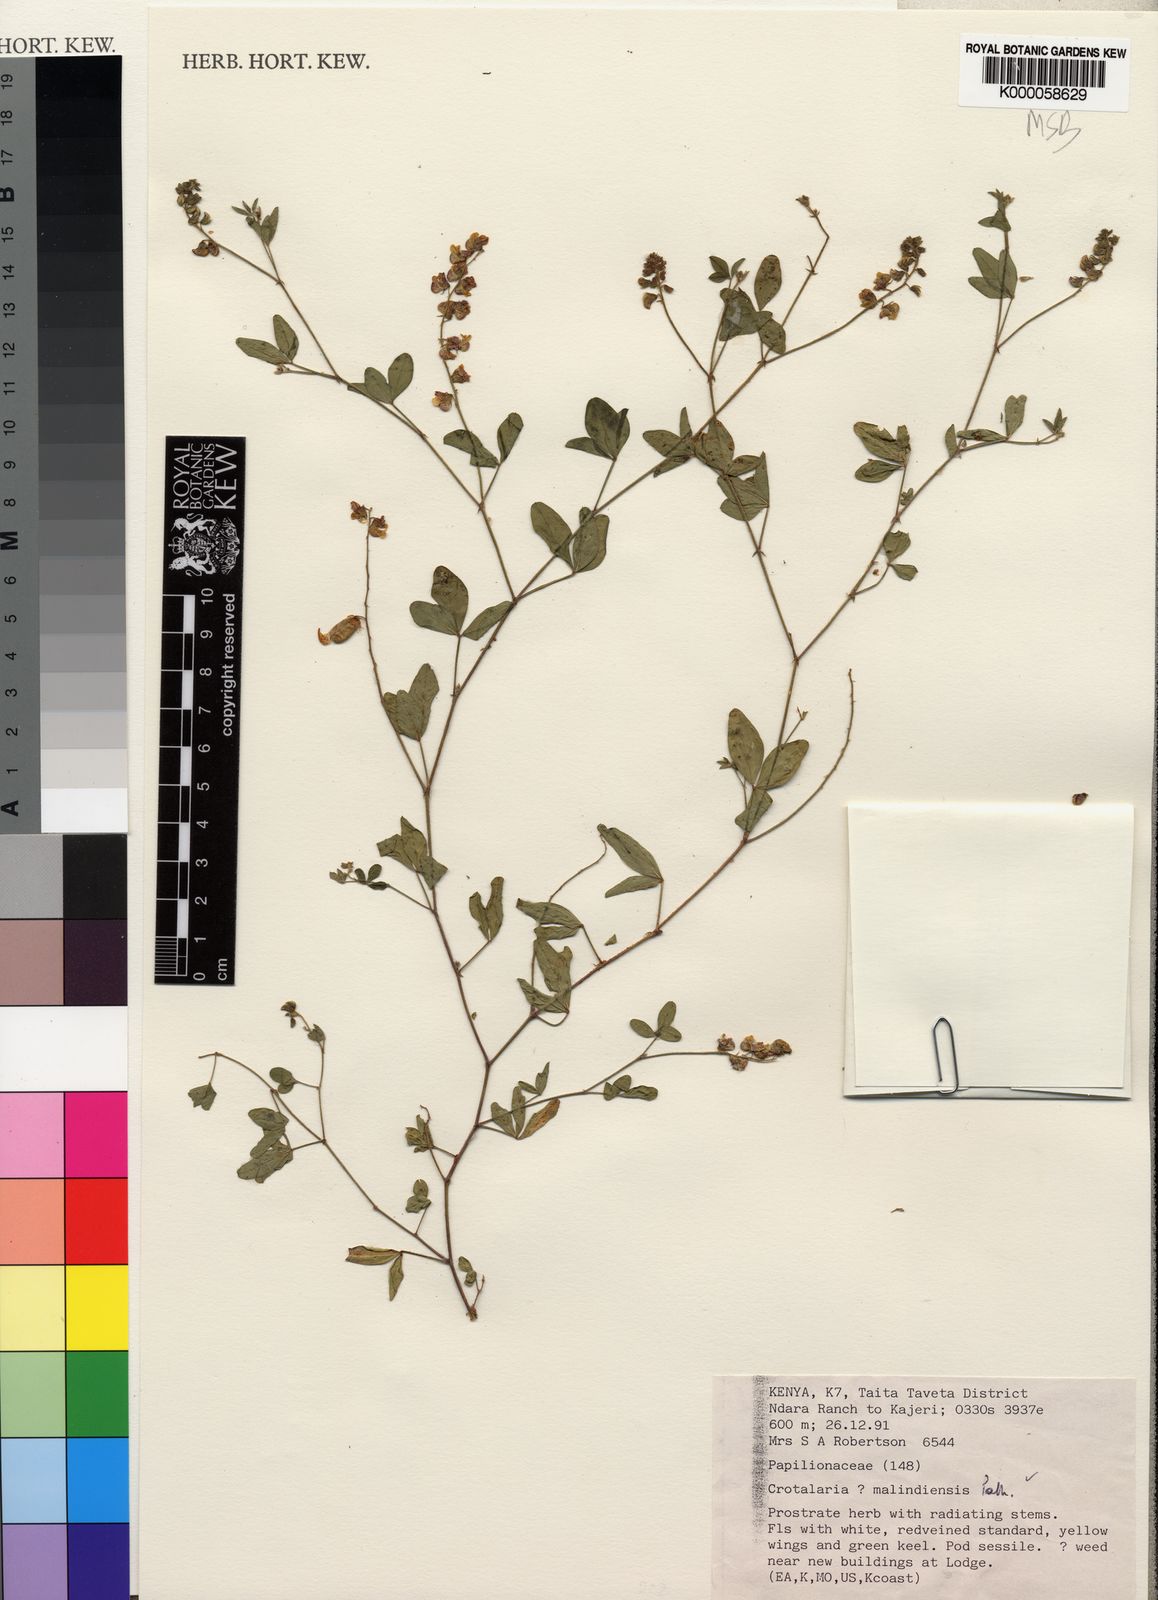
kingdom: Plantae
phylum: Tracheophyta
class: Magnoliopsida
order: Fabales
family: Fabaceae
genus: Crotalaria
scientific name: Crotalaria malindiensis
